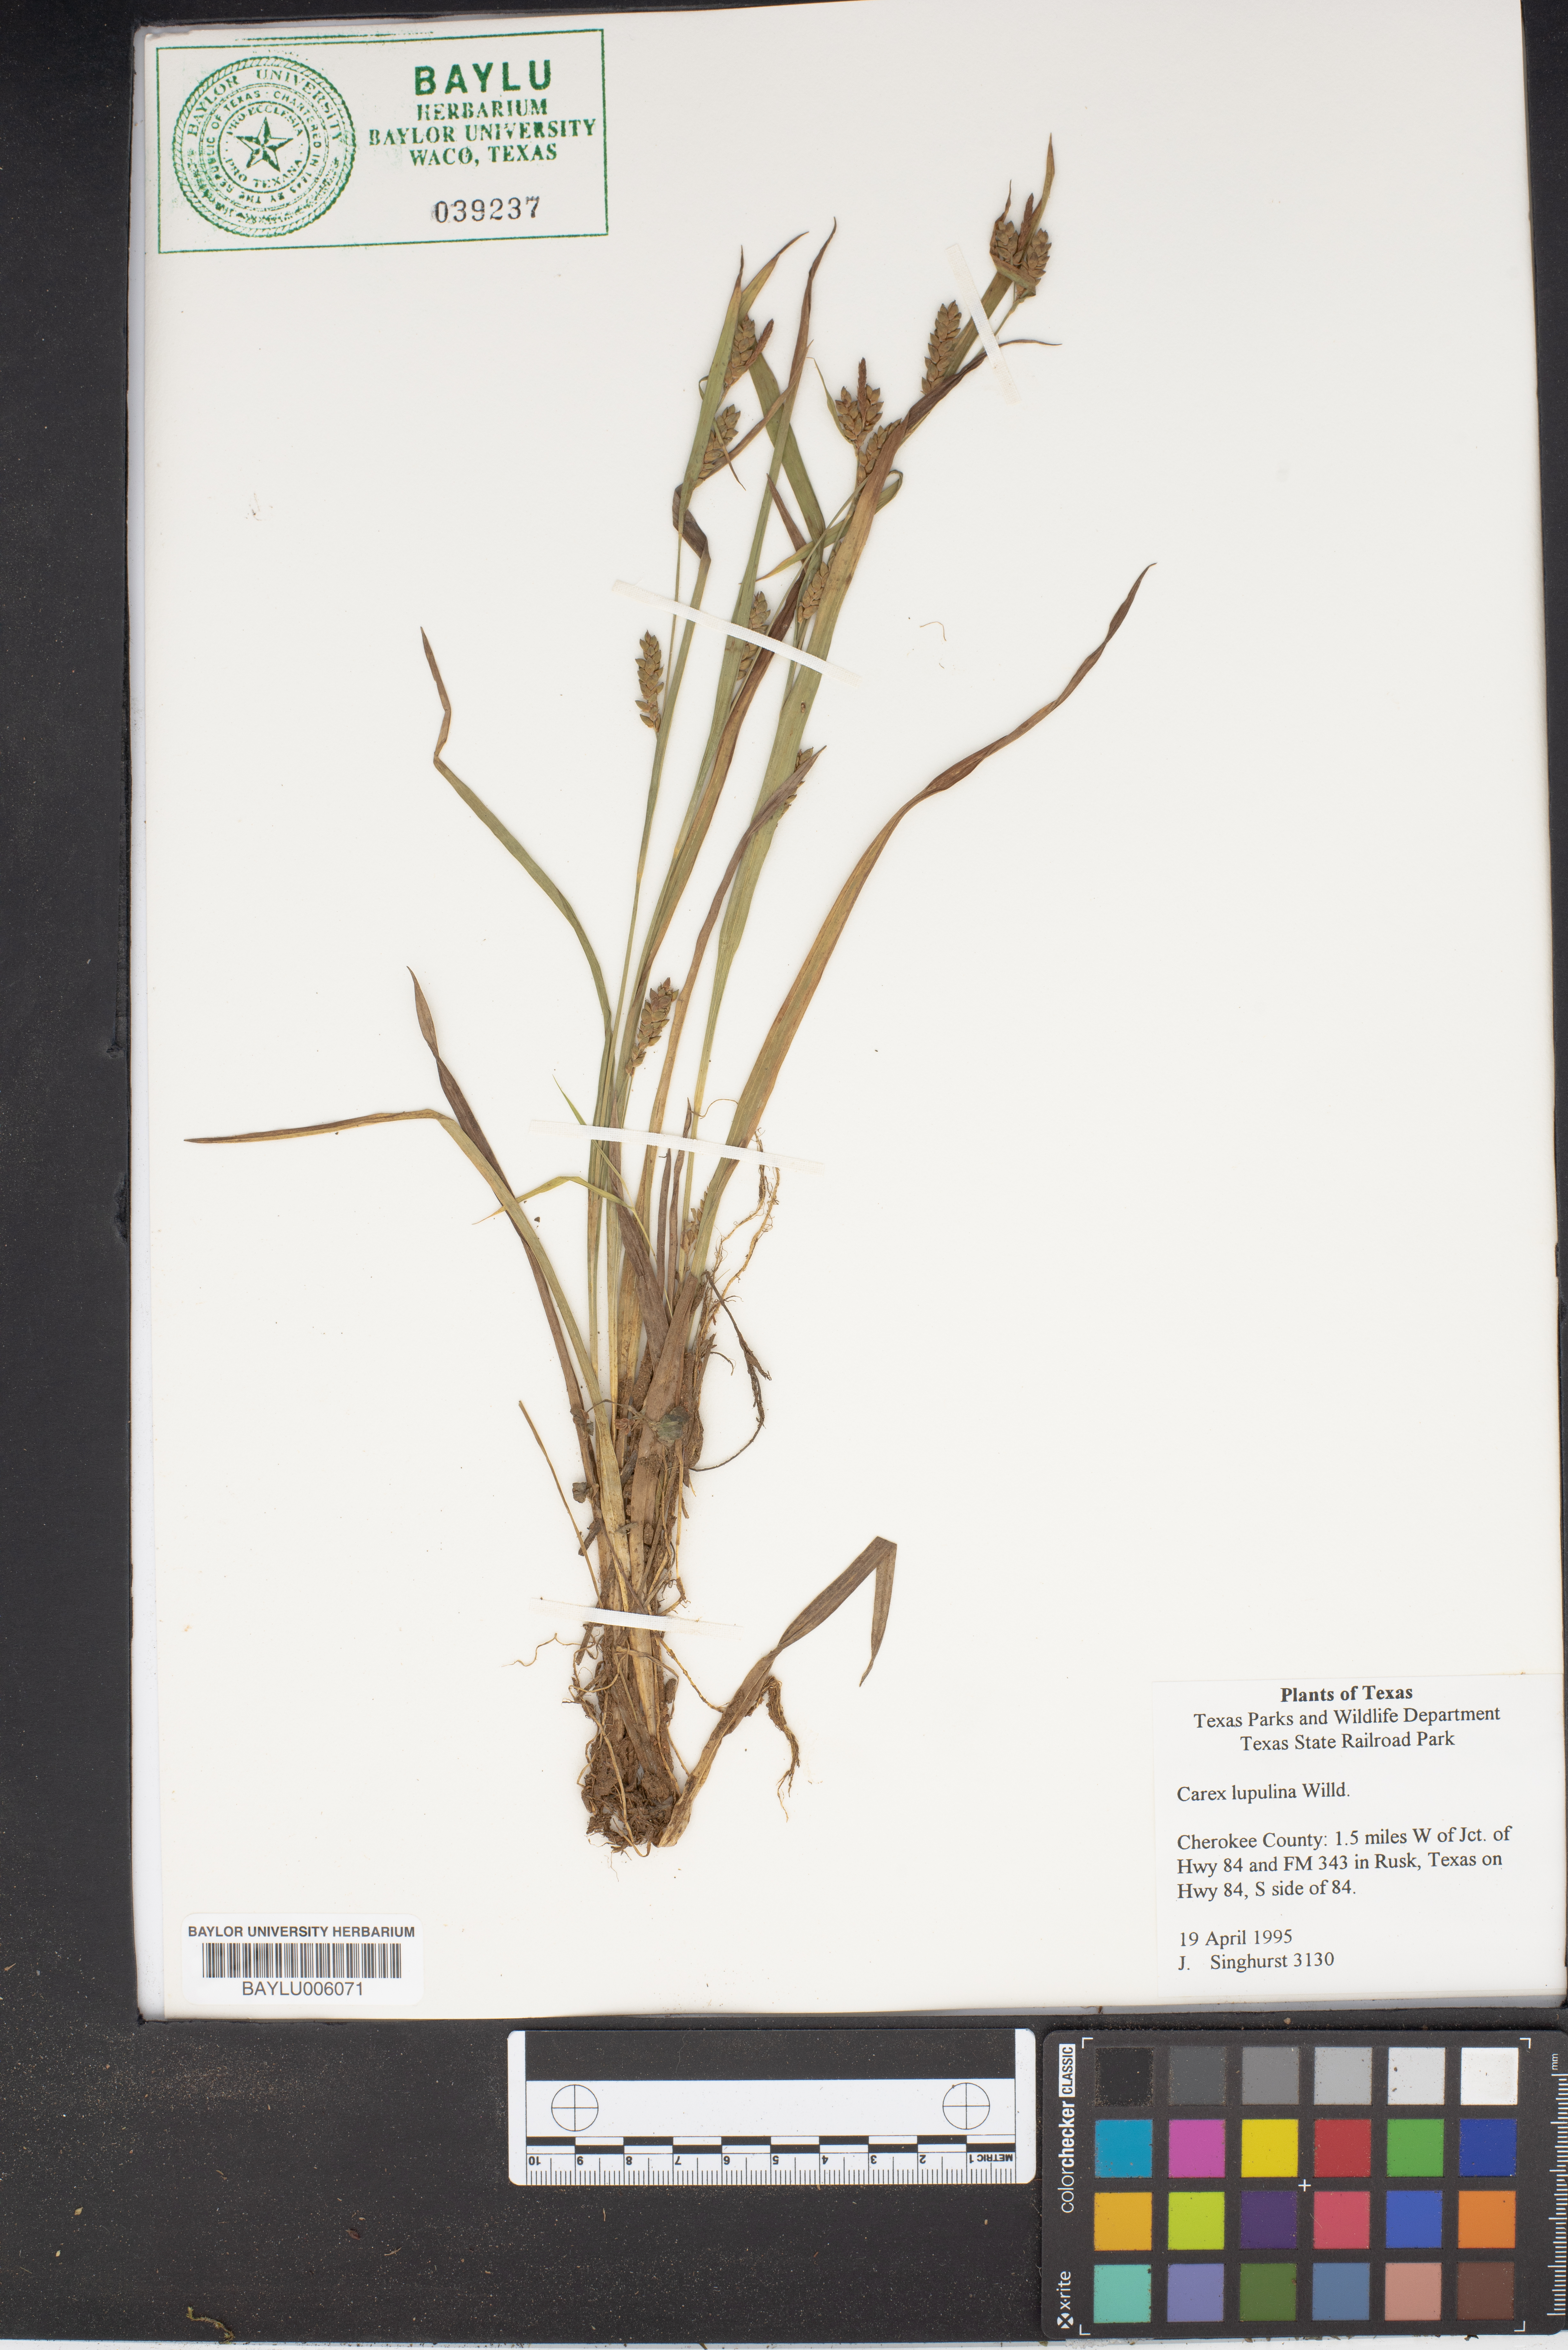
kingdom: Plantae
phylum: Tracheophyta
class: Liliopsida
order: Poales
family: Cyperaceae
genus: Carex
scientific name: Carex lupulina
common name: Hop sedge
